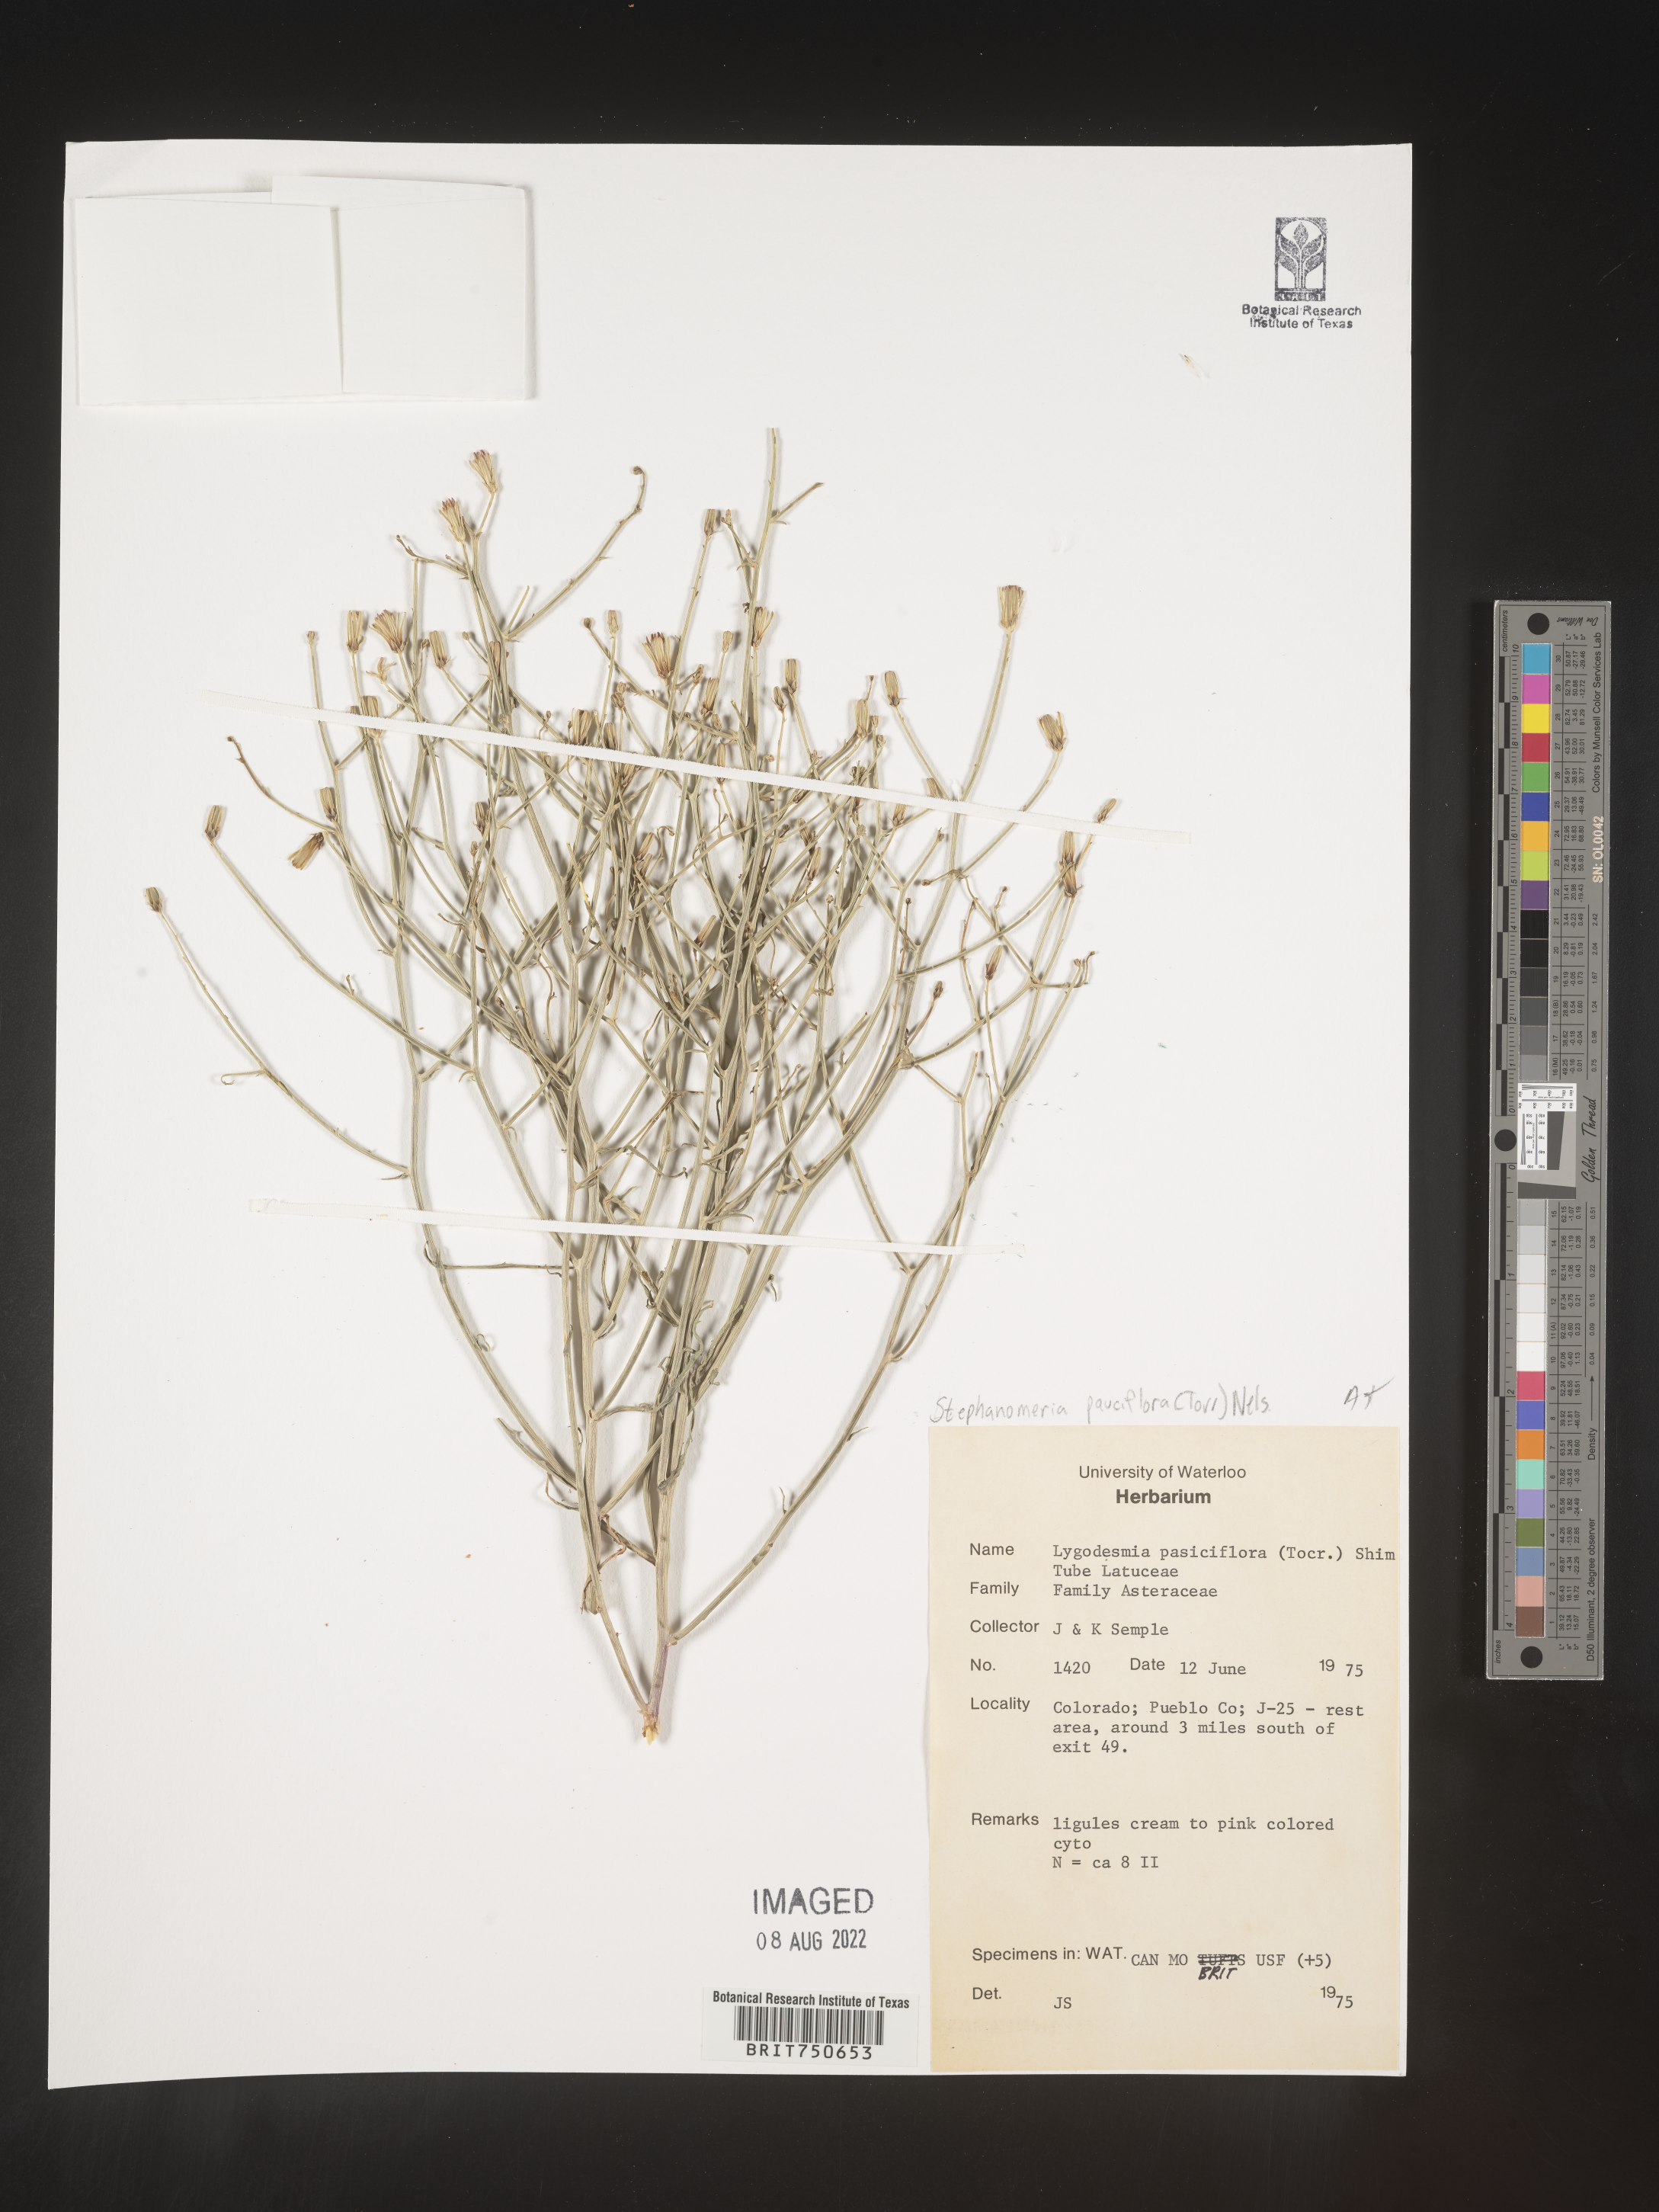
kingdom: Plantae
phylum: Tracheophyta
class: Magnoliopsida
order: Asterales
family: Asteraceae
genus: Stephanomeria
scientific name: Stephanomeria pauciflora
